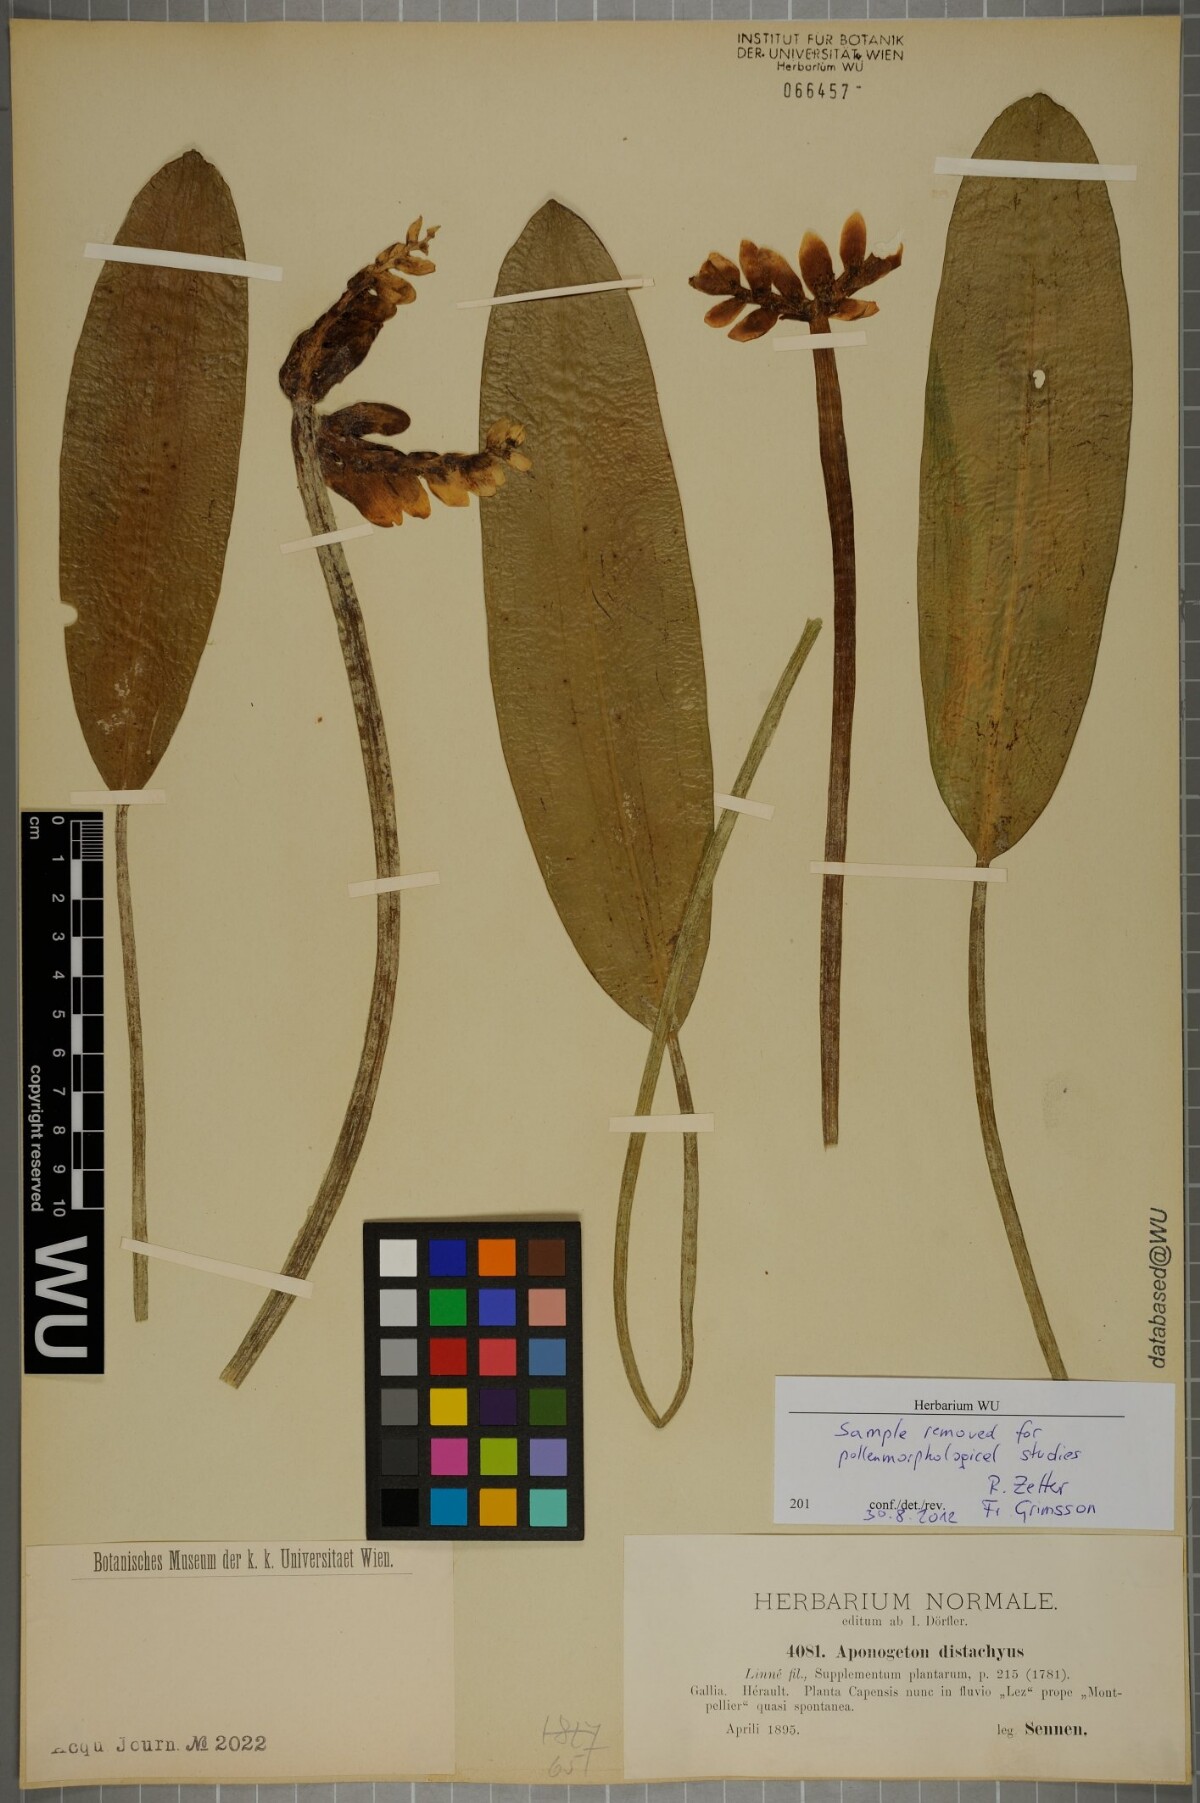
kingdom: Plantae
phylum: Tracheophyta
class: Liliopsida
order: Alismatales
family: Aponogetonaceae
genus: Aponogeton
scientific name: Aponogeton distachyos
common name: Cape-pondweed
